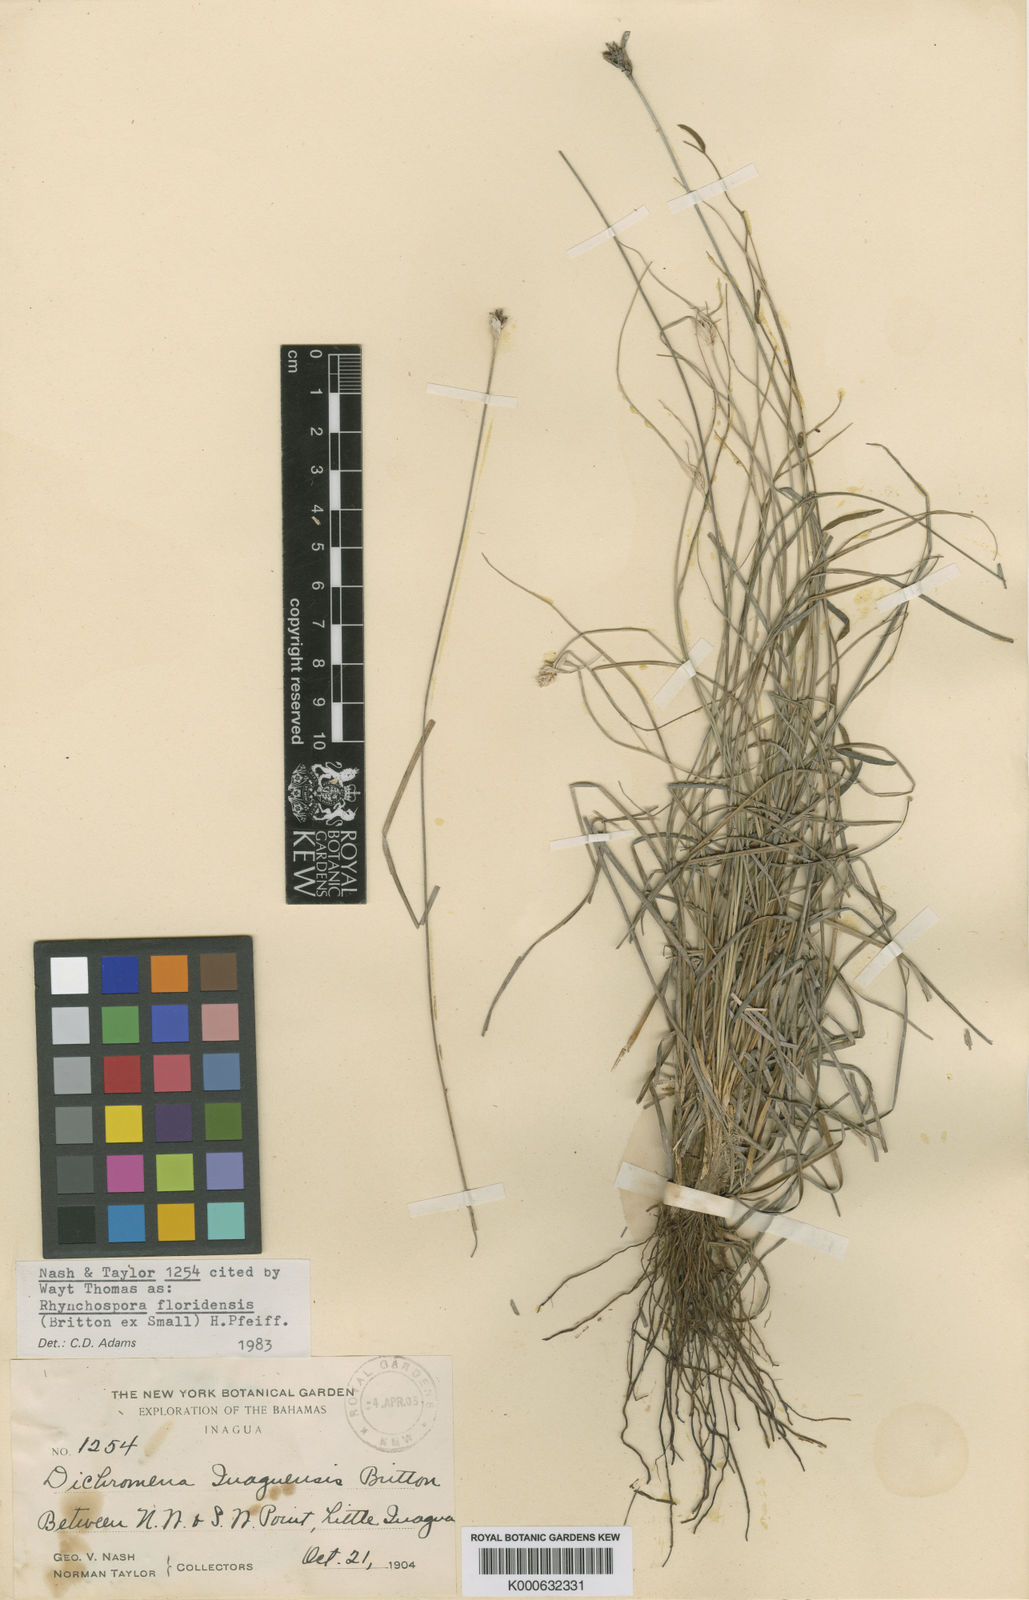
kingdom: Plantae
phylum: Tracheophyta
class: Liliopsida
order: Poales
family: Cyperaceae
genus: Rhynchospora
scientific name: Rhynchospora floridensis
